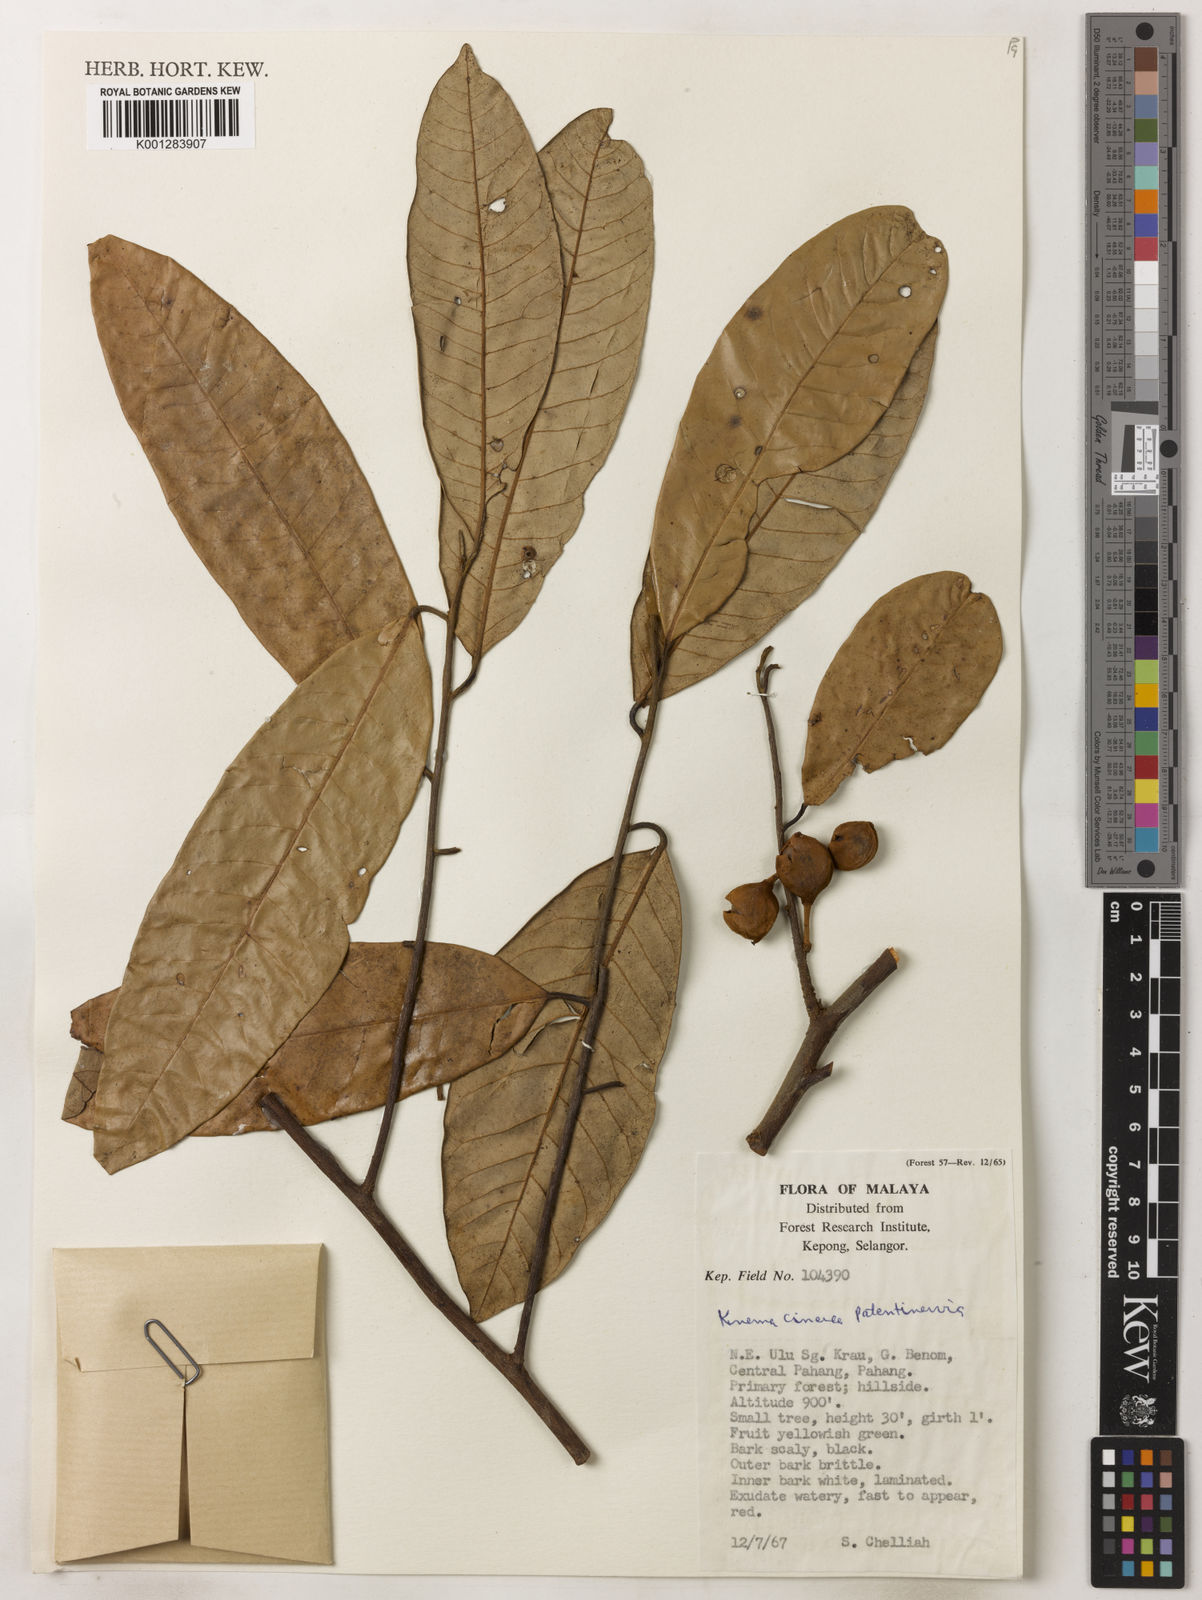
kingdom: Plantae
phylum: Tracheophyta
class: Magnoliopsida
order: Magnoliales
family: Myristicaceae
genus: Knema
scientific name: Knema
